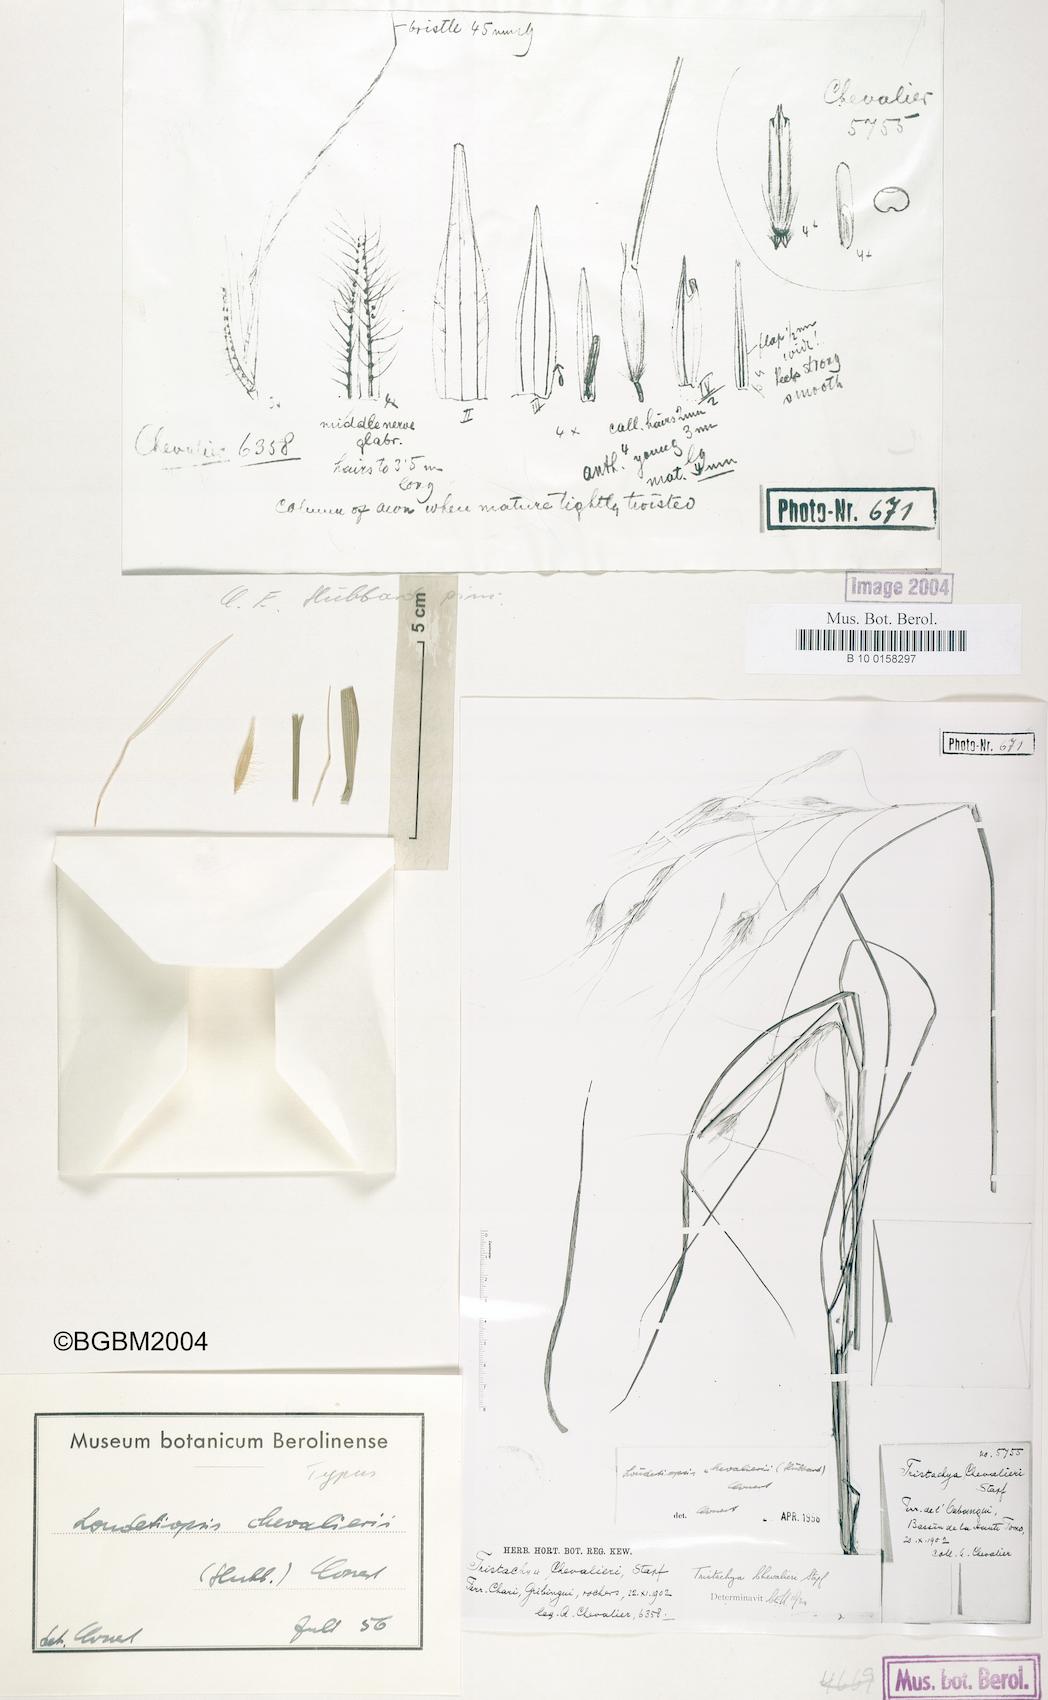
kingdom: Plantae
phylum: Tracheophyta
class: Liliopsida
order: Poales
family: Poaceae
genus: Loudetiopsis
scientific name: Loudetiopsis chevalieri
